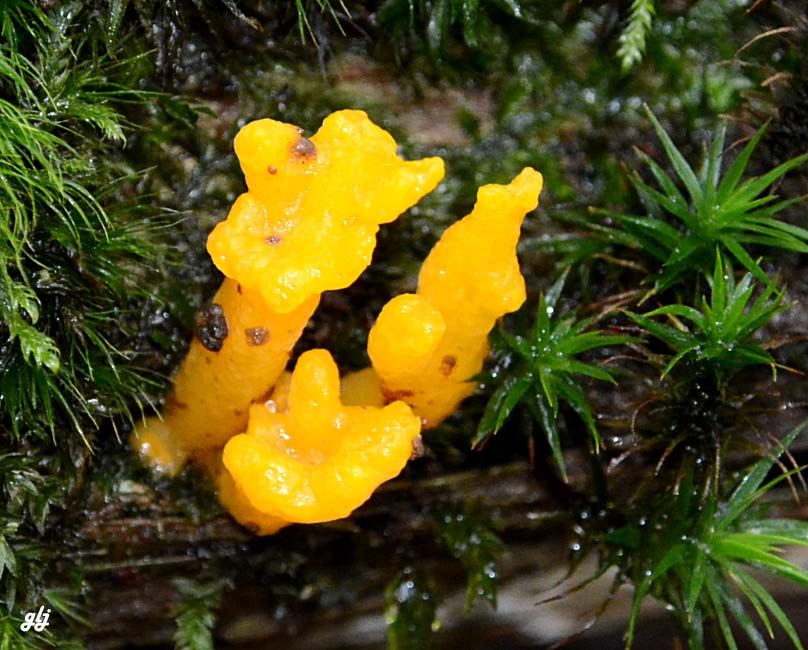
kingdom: Fungi
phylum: Basidiomycota
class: Dacrymycetes
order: Dacrymycetales
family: Dacrymycetaceae
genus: Calocera
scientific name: Calocera
